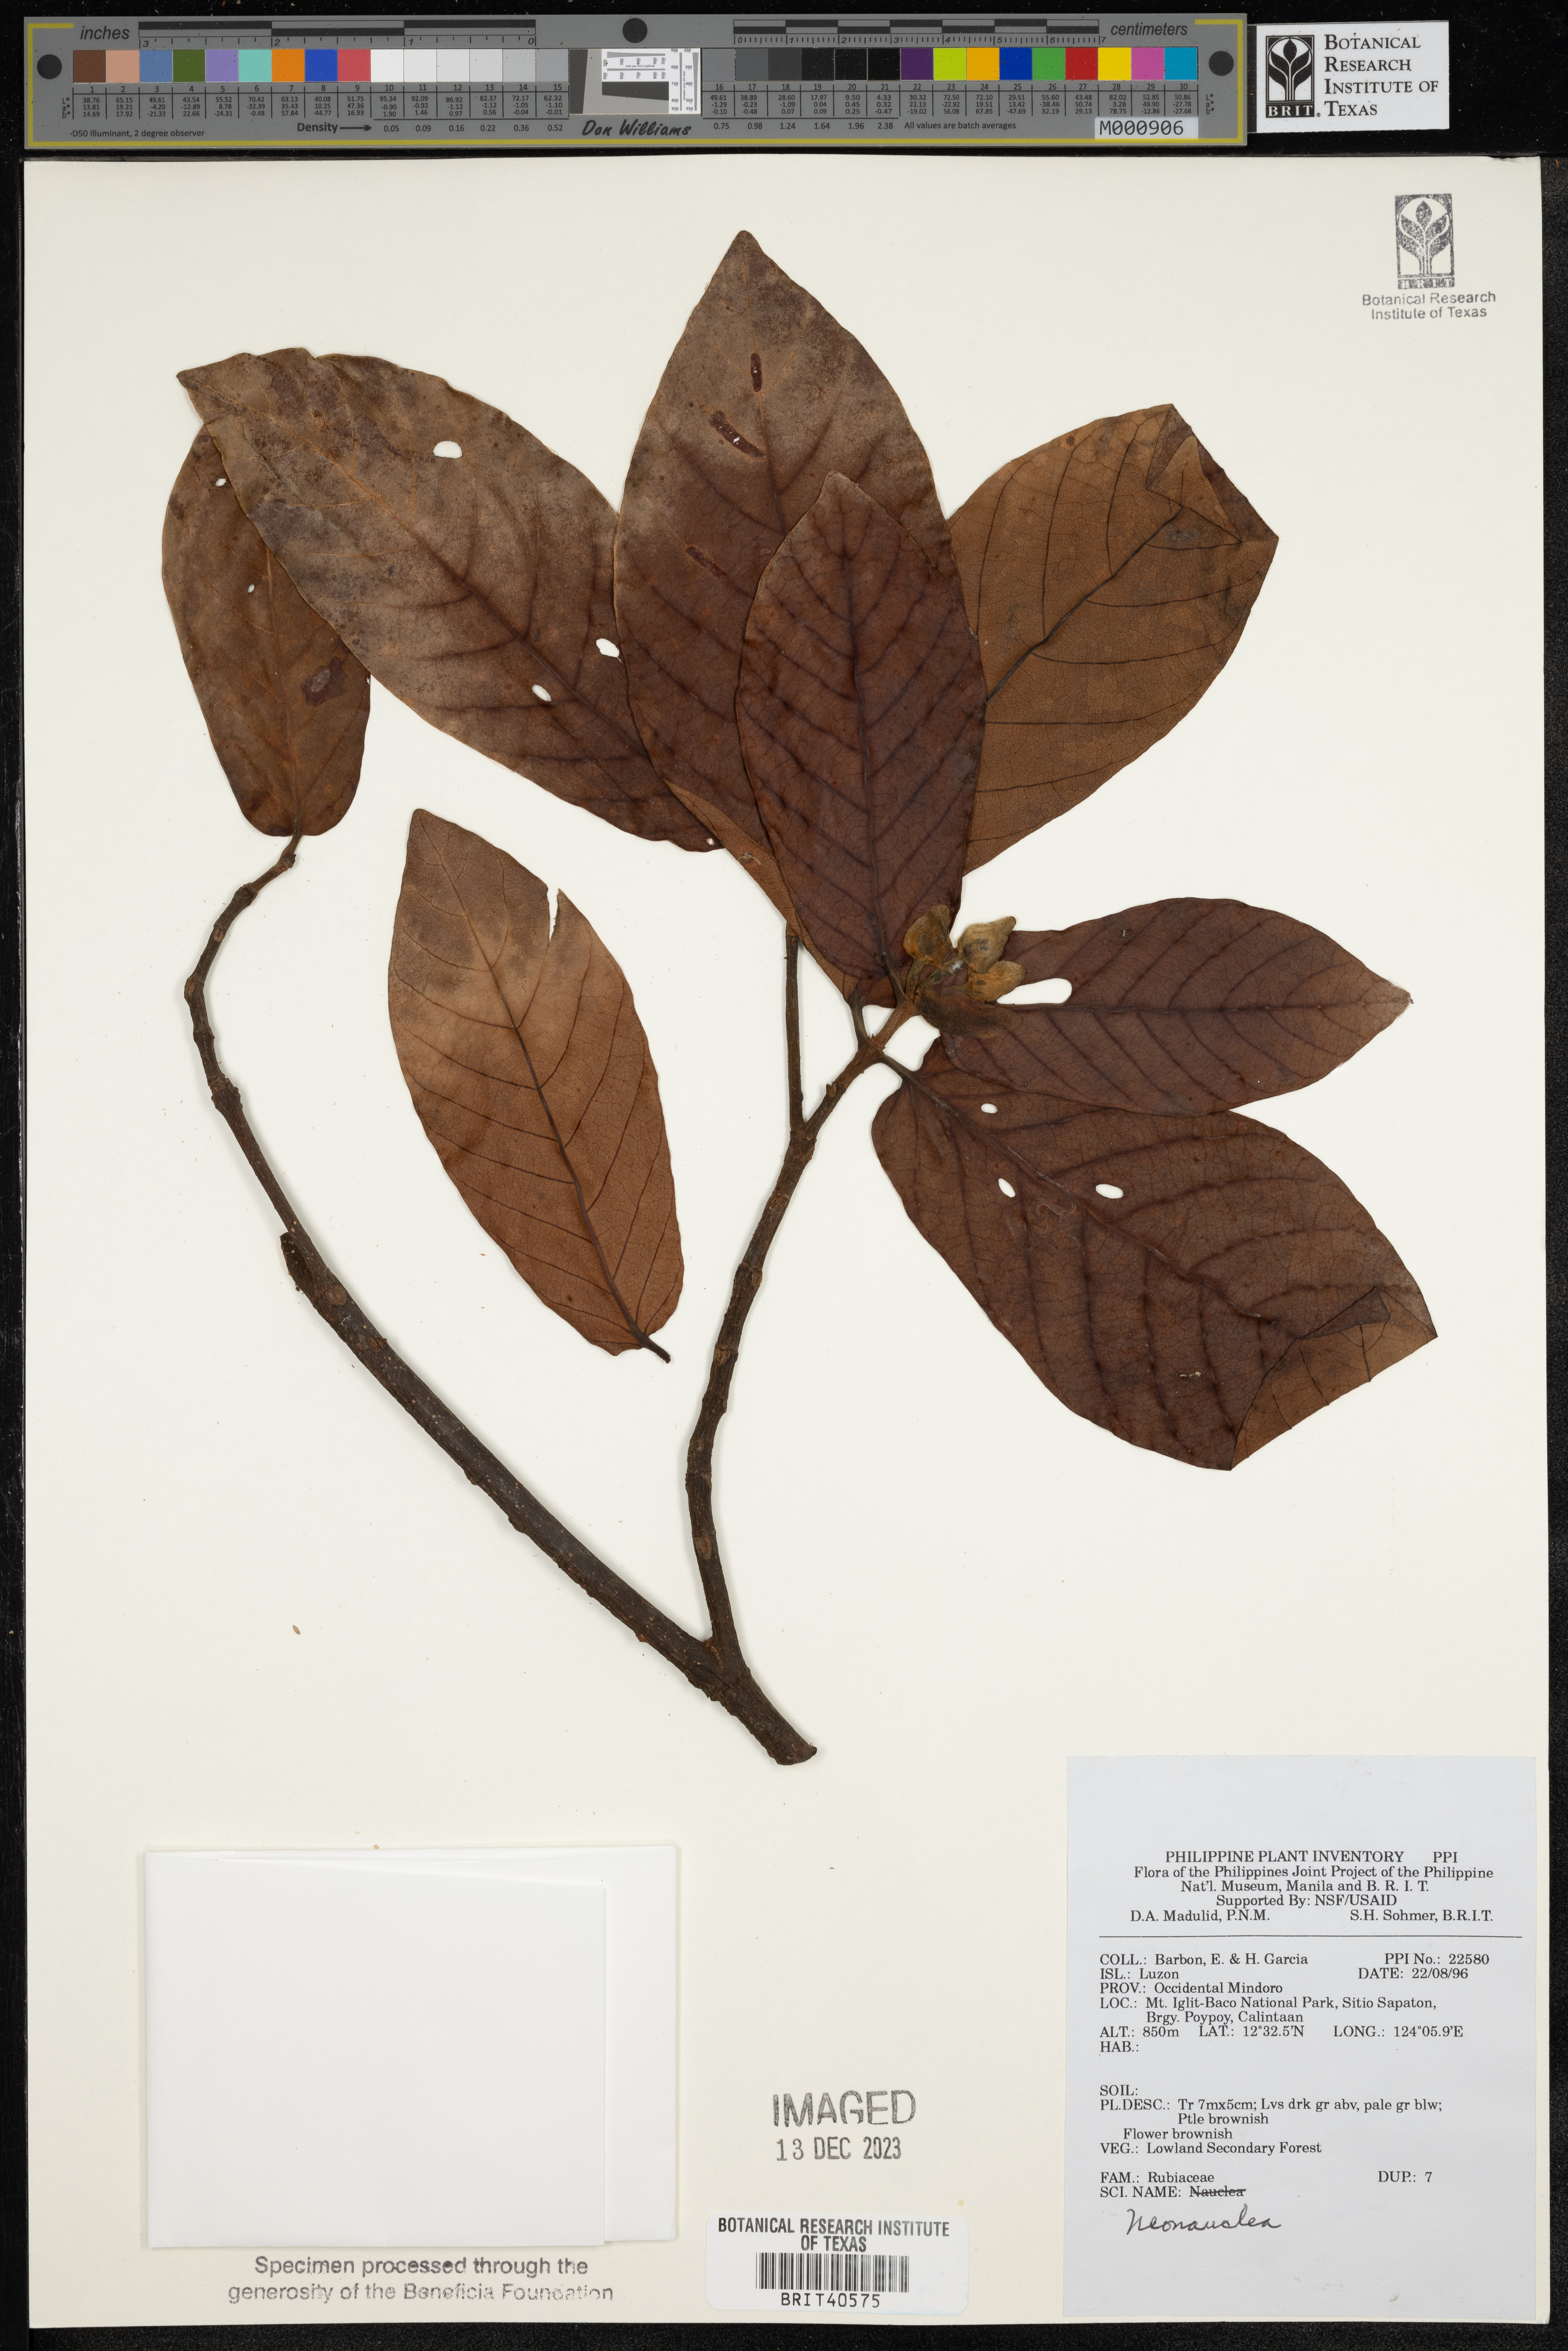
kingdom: Plantae
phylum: Tracheophyta
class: Magnoliopsida
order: Gentianales
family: Rubiaceae
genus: Neonauclea
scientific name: Neonauclea
